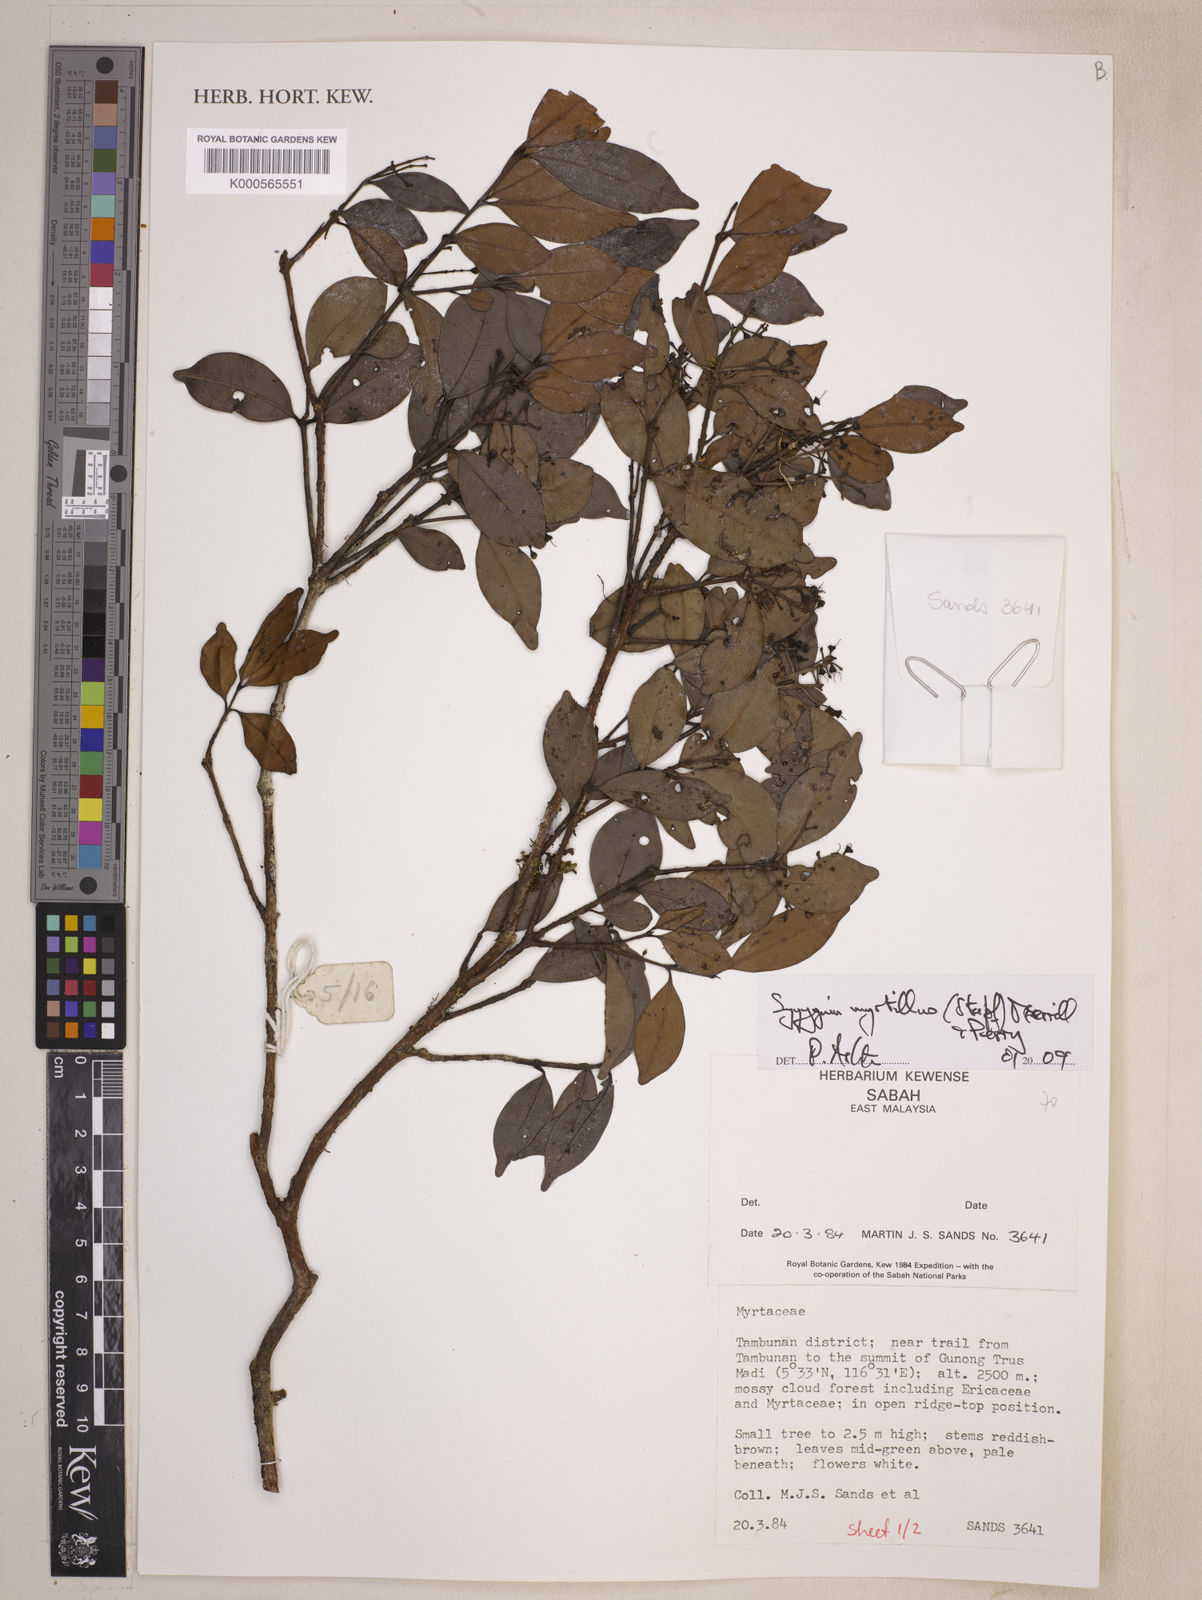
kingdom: Plantae
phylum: Tracheophyta
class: Magnoliopsida
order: Myrtales
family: Myrtaceae
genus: Syzygium
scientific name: Syzygium myrtillus
